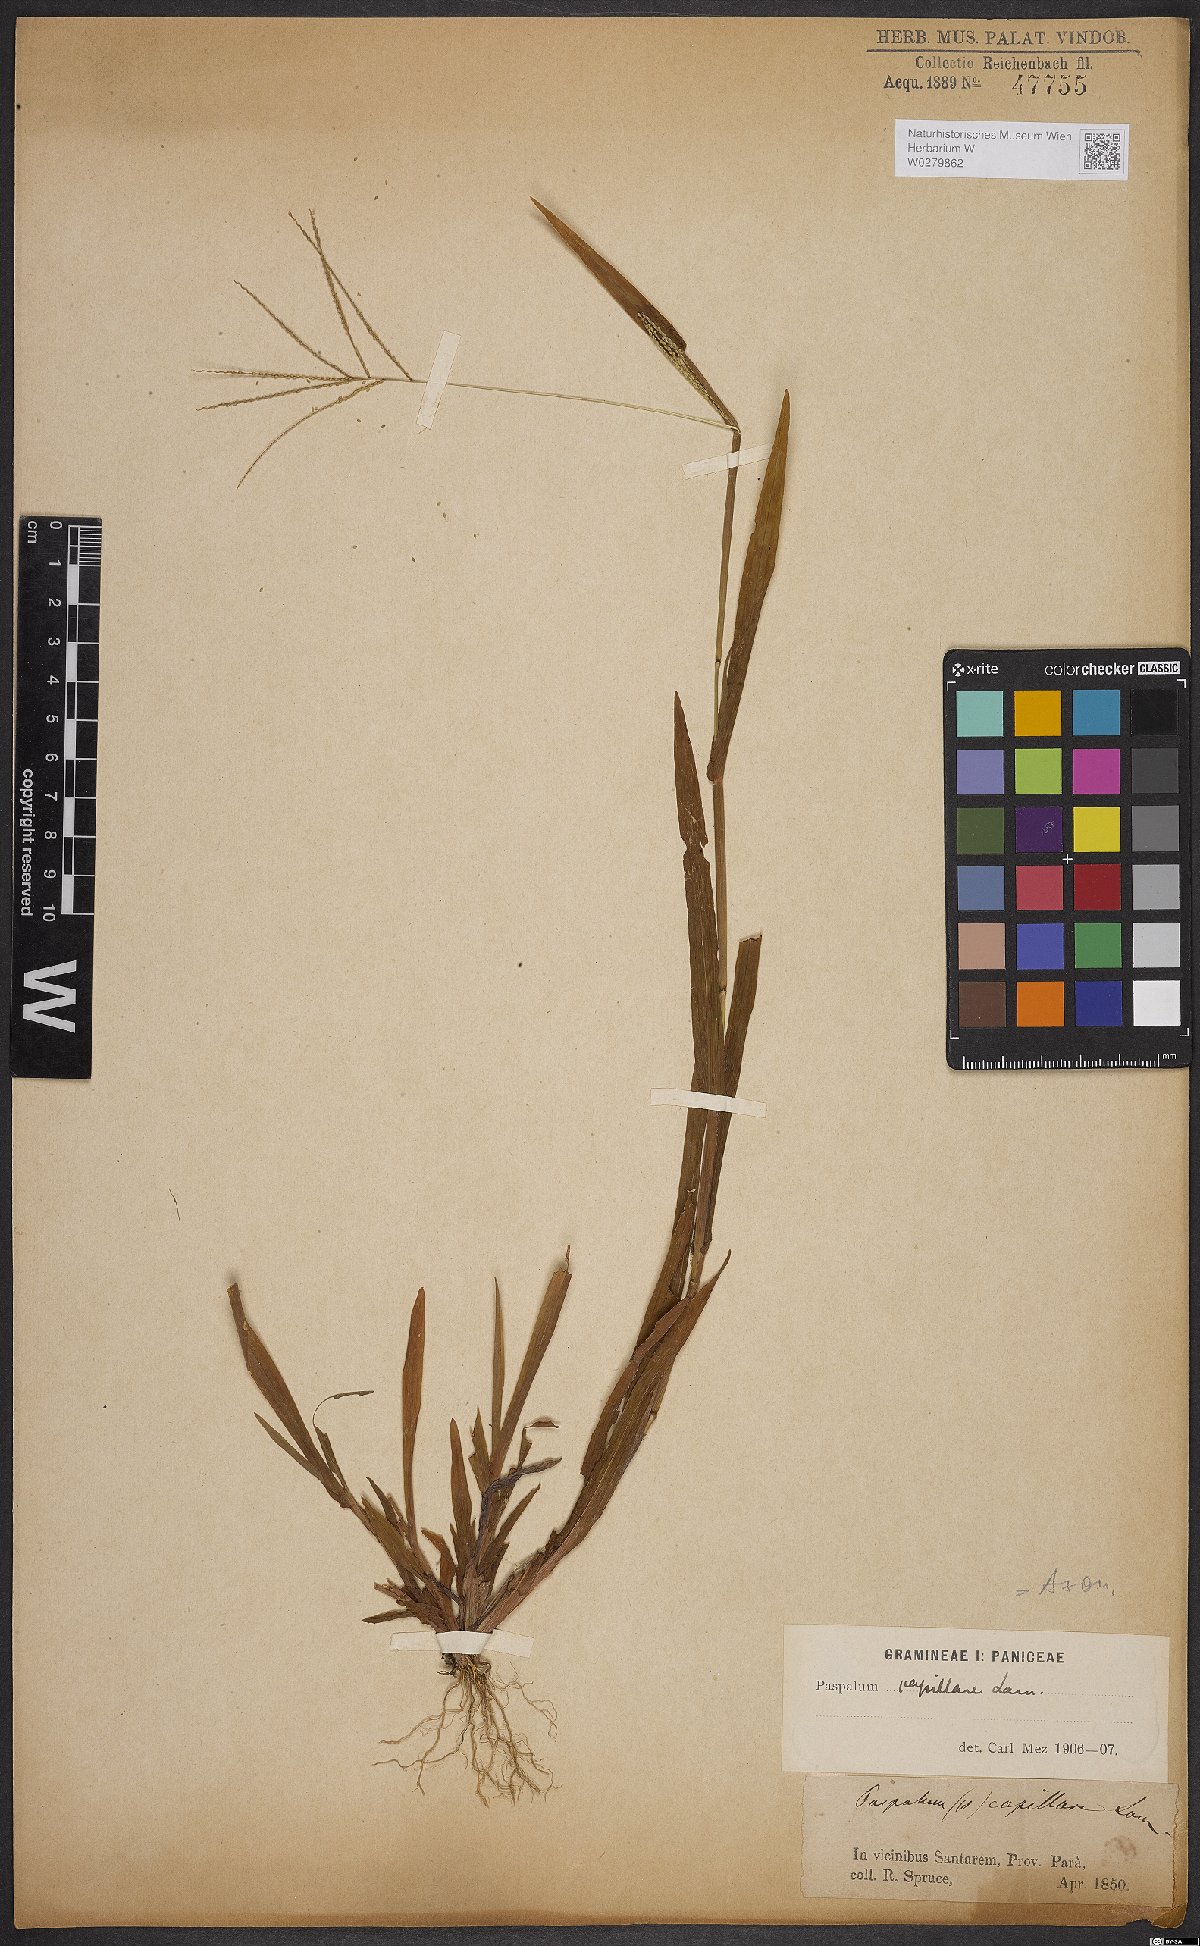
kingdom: Plantae
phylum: Tracheophyta
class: Liliopsida
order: Poales
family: Poaceae
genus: Axonopus
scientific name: Axonopus capillaris
